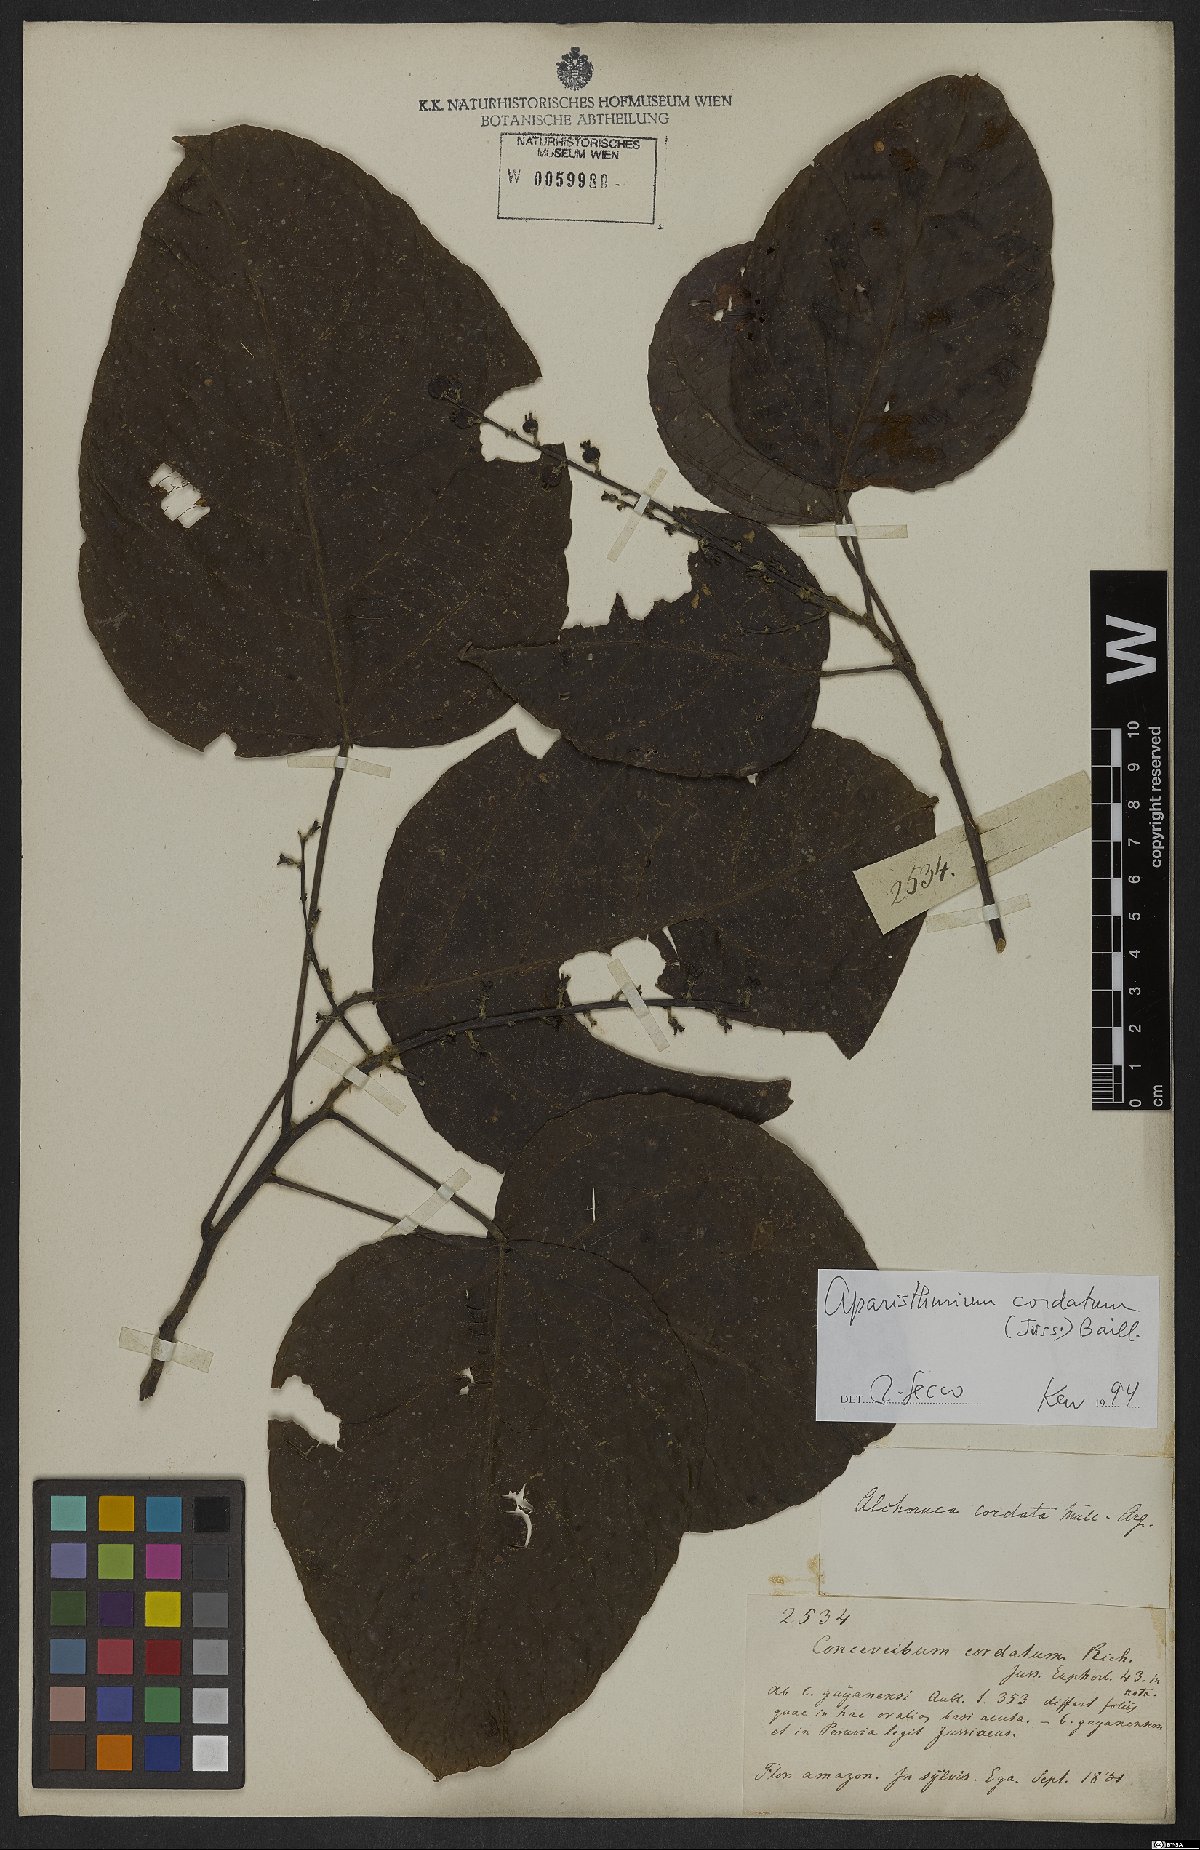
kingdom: Plantae
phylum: Tracheophyta
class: Magnoliopsida
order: Malpighiales
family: Euphorbiaceae
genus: Aparisthmium
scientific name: Aparisthmium cordatum
